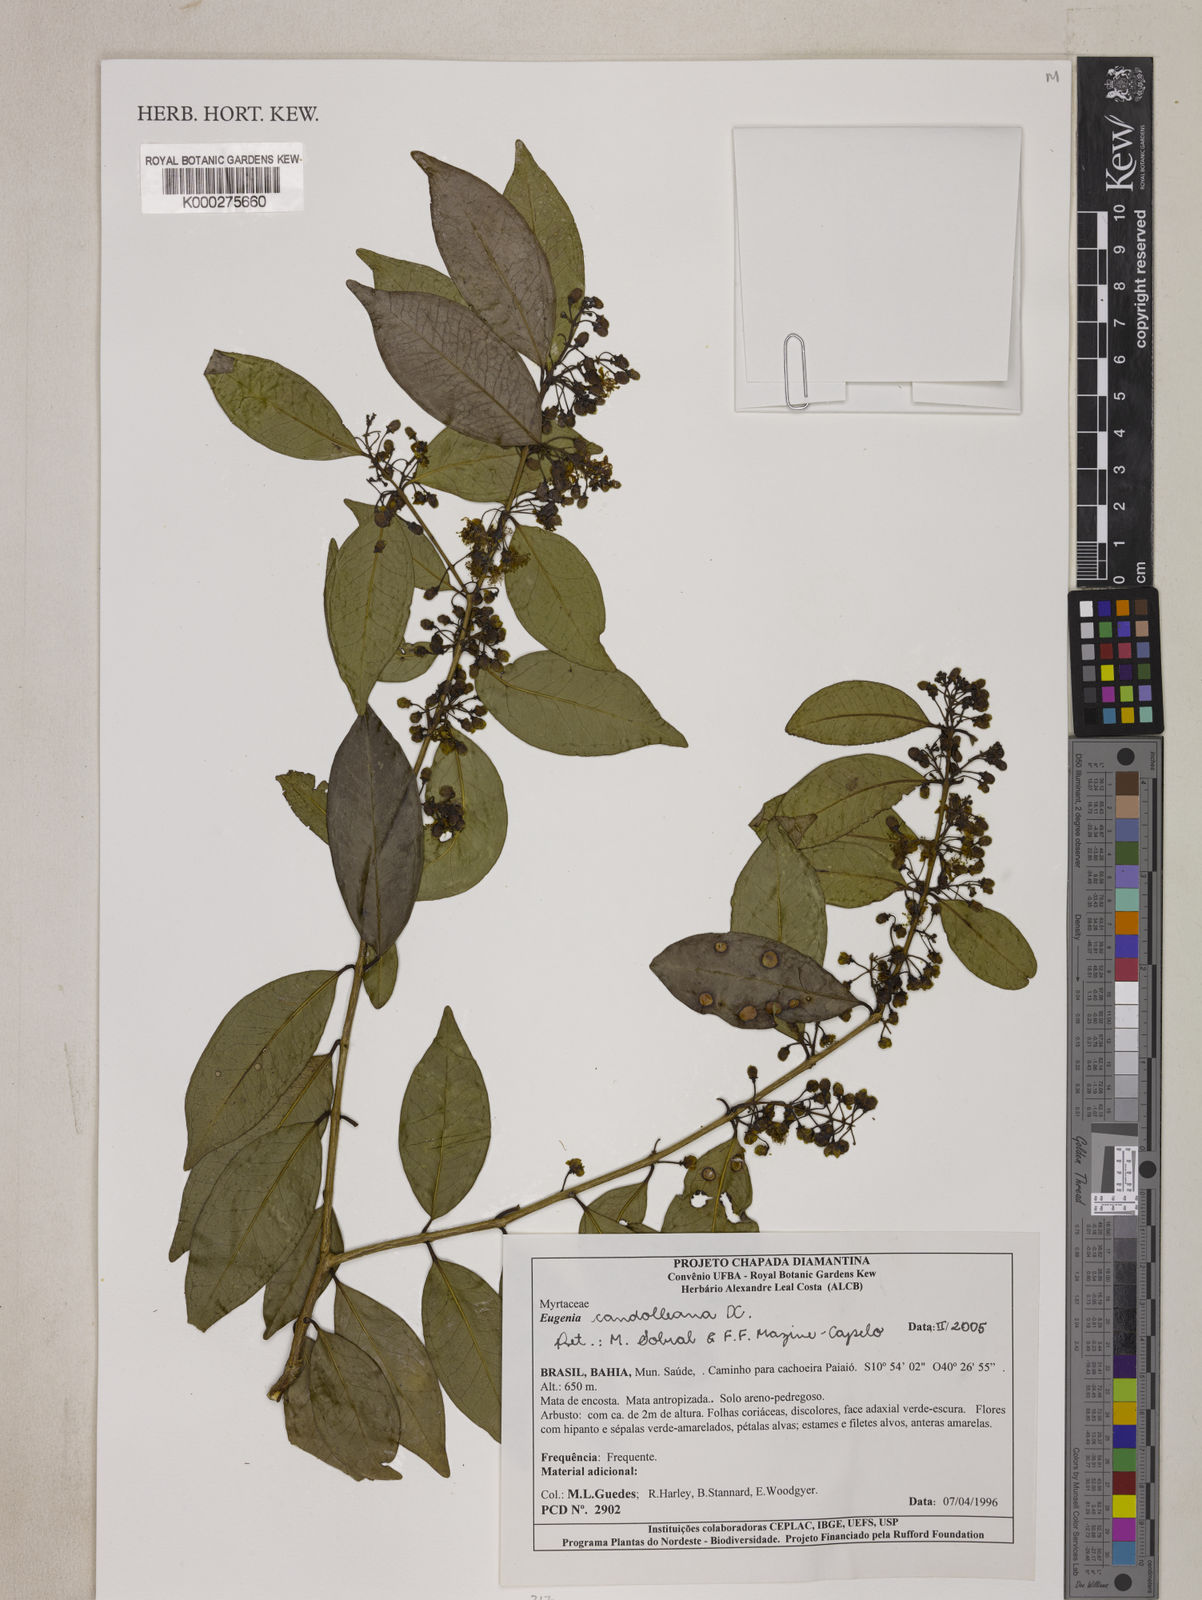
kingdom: Plantae
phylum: Tracheophyta
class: Magnoliopsida
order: Myrtales
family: Myrtaceae
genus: Eugenia
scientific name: Eugenia candolleana
